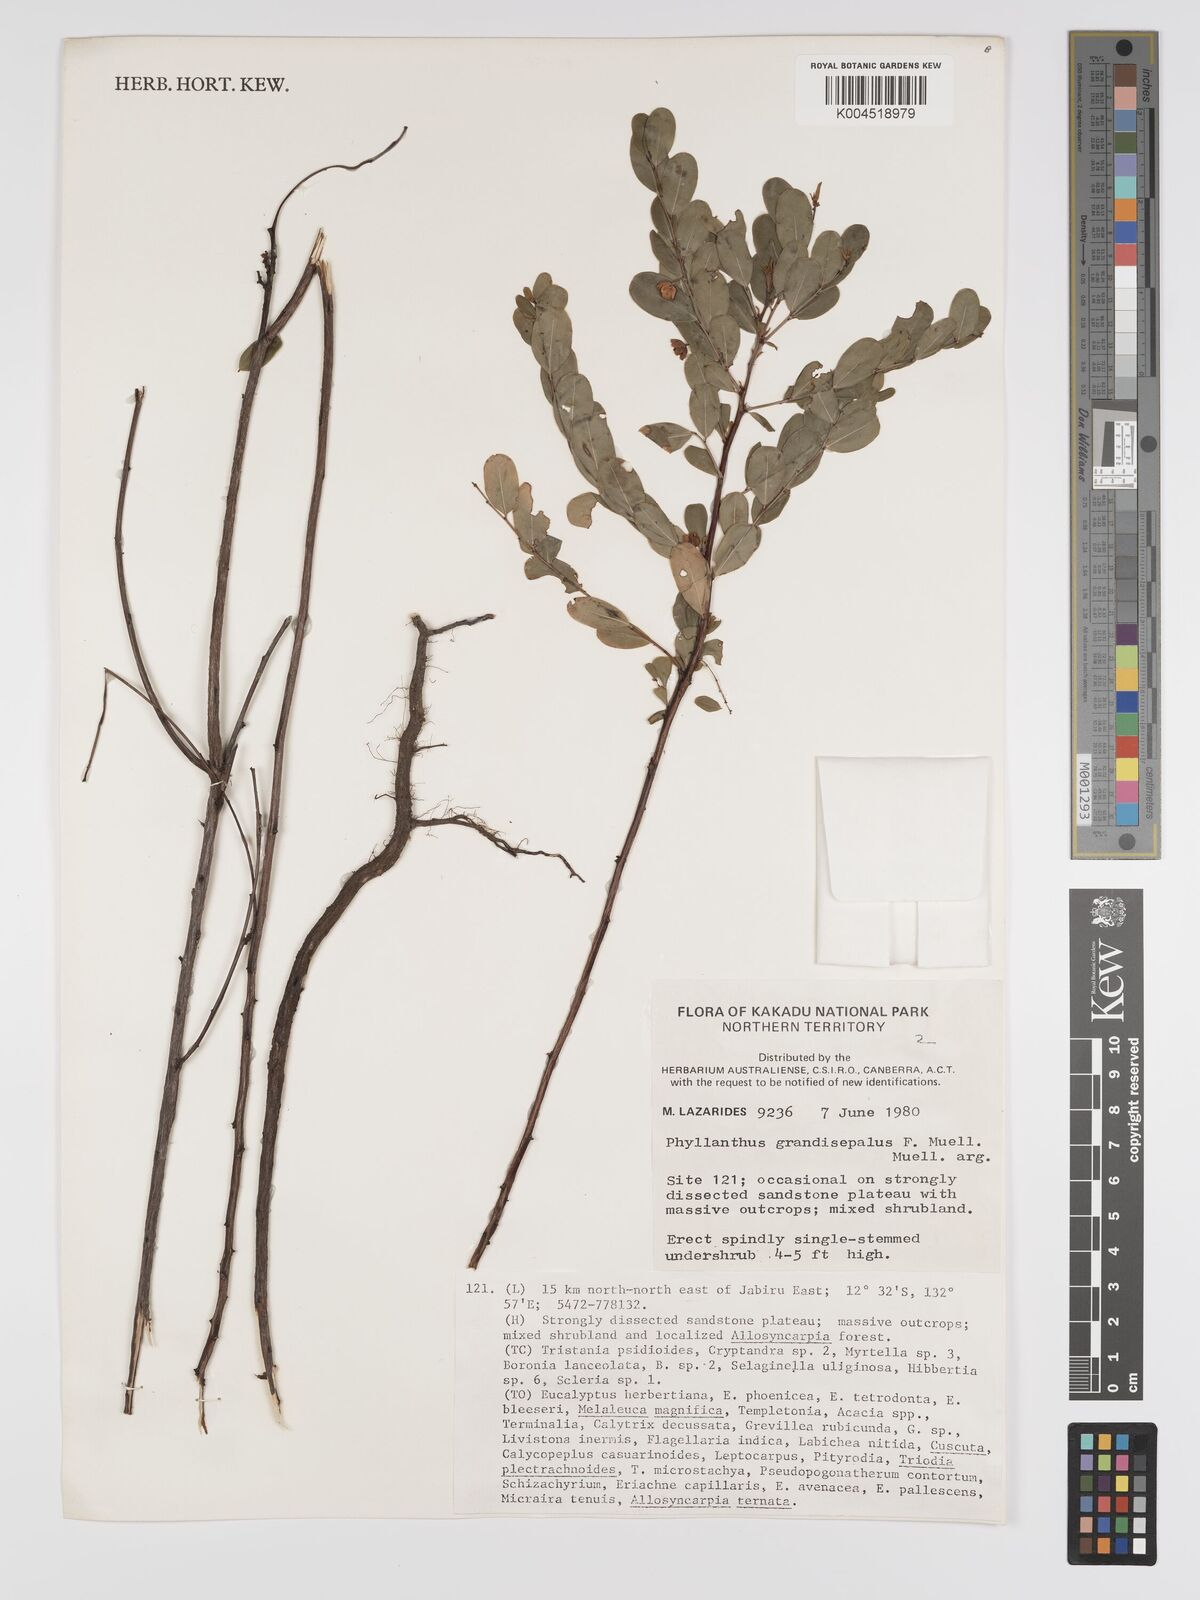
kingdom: Plantae
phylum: Tracheophyta
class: Magnoliopsida
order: Malpighiales
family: Phyllanthaceae
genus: Phyllanthus
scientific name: Phyllanthus carpentariae
